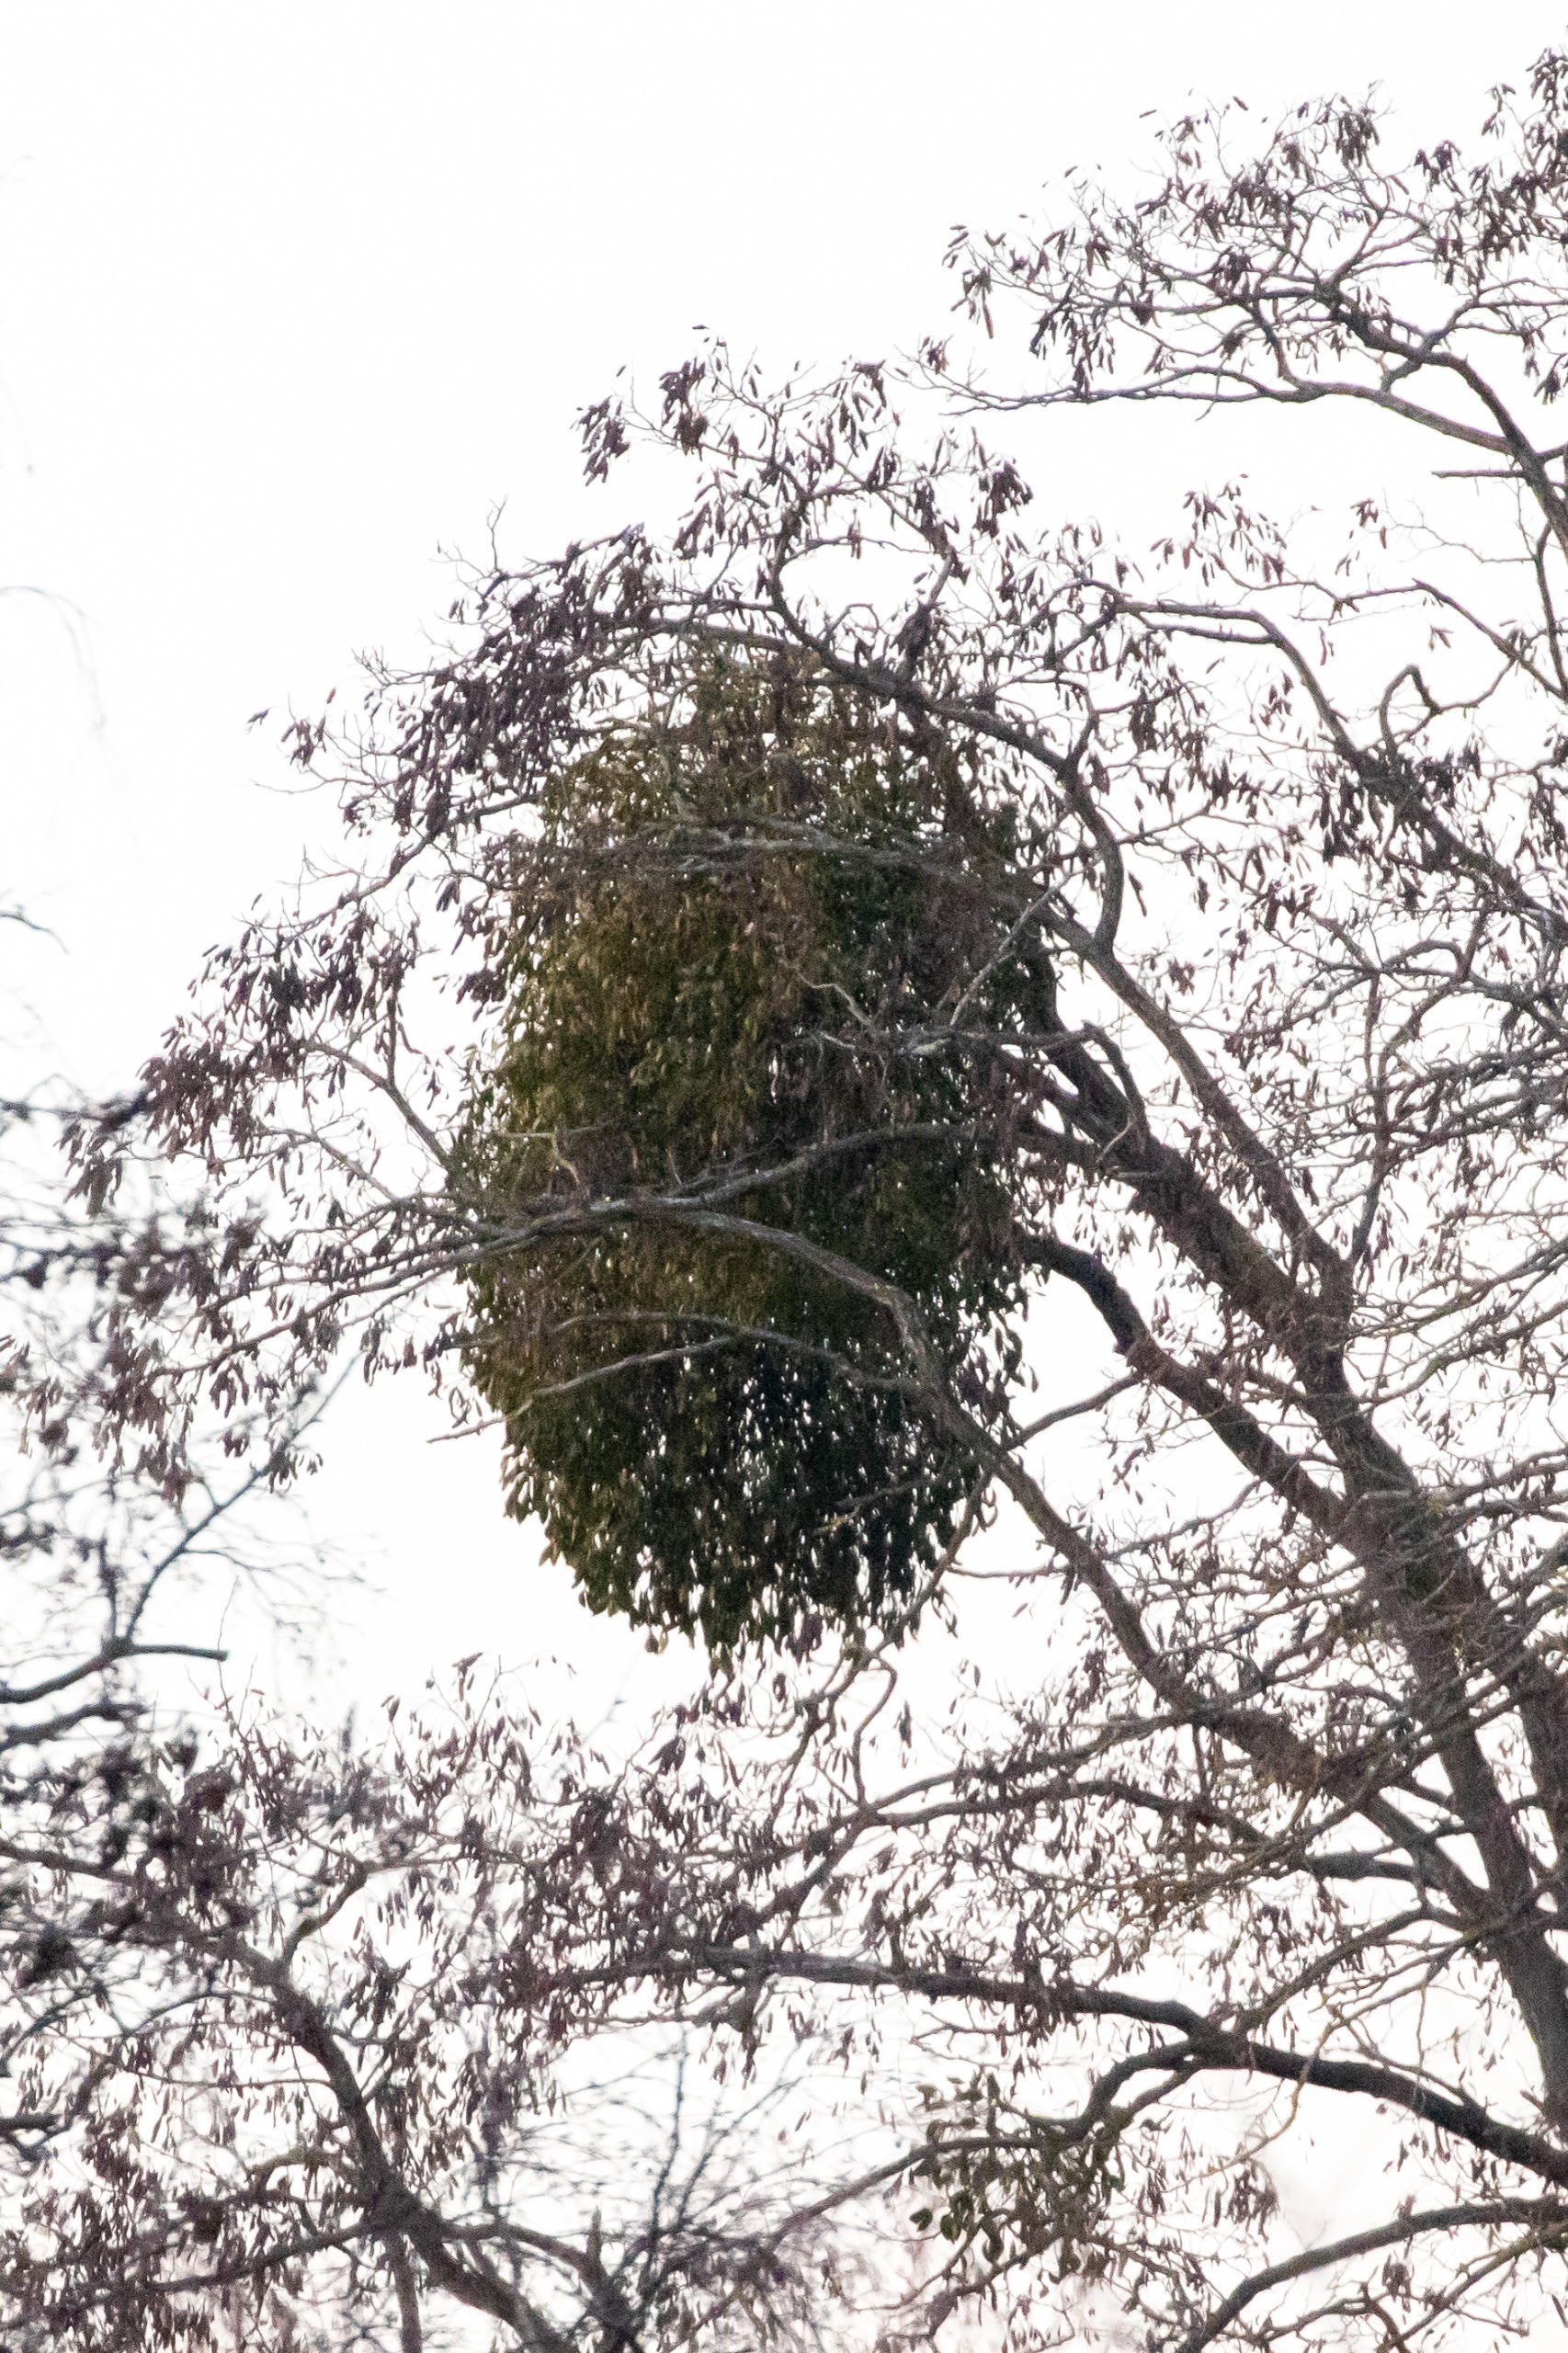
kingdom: Plantae
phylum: Tracheophyta
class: Magnoliopsida
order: Santalales
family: Viscaceae
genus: Viscum
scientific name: Viscum album
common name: Mistelten
